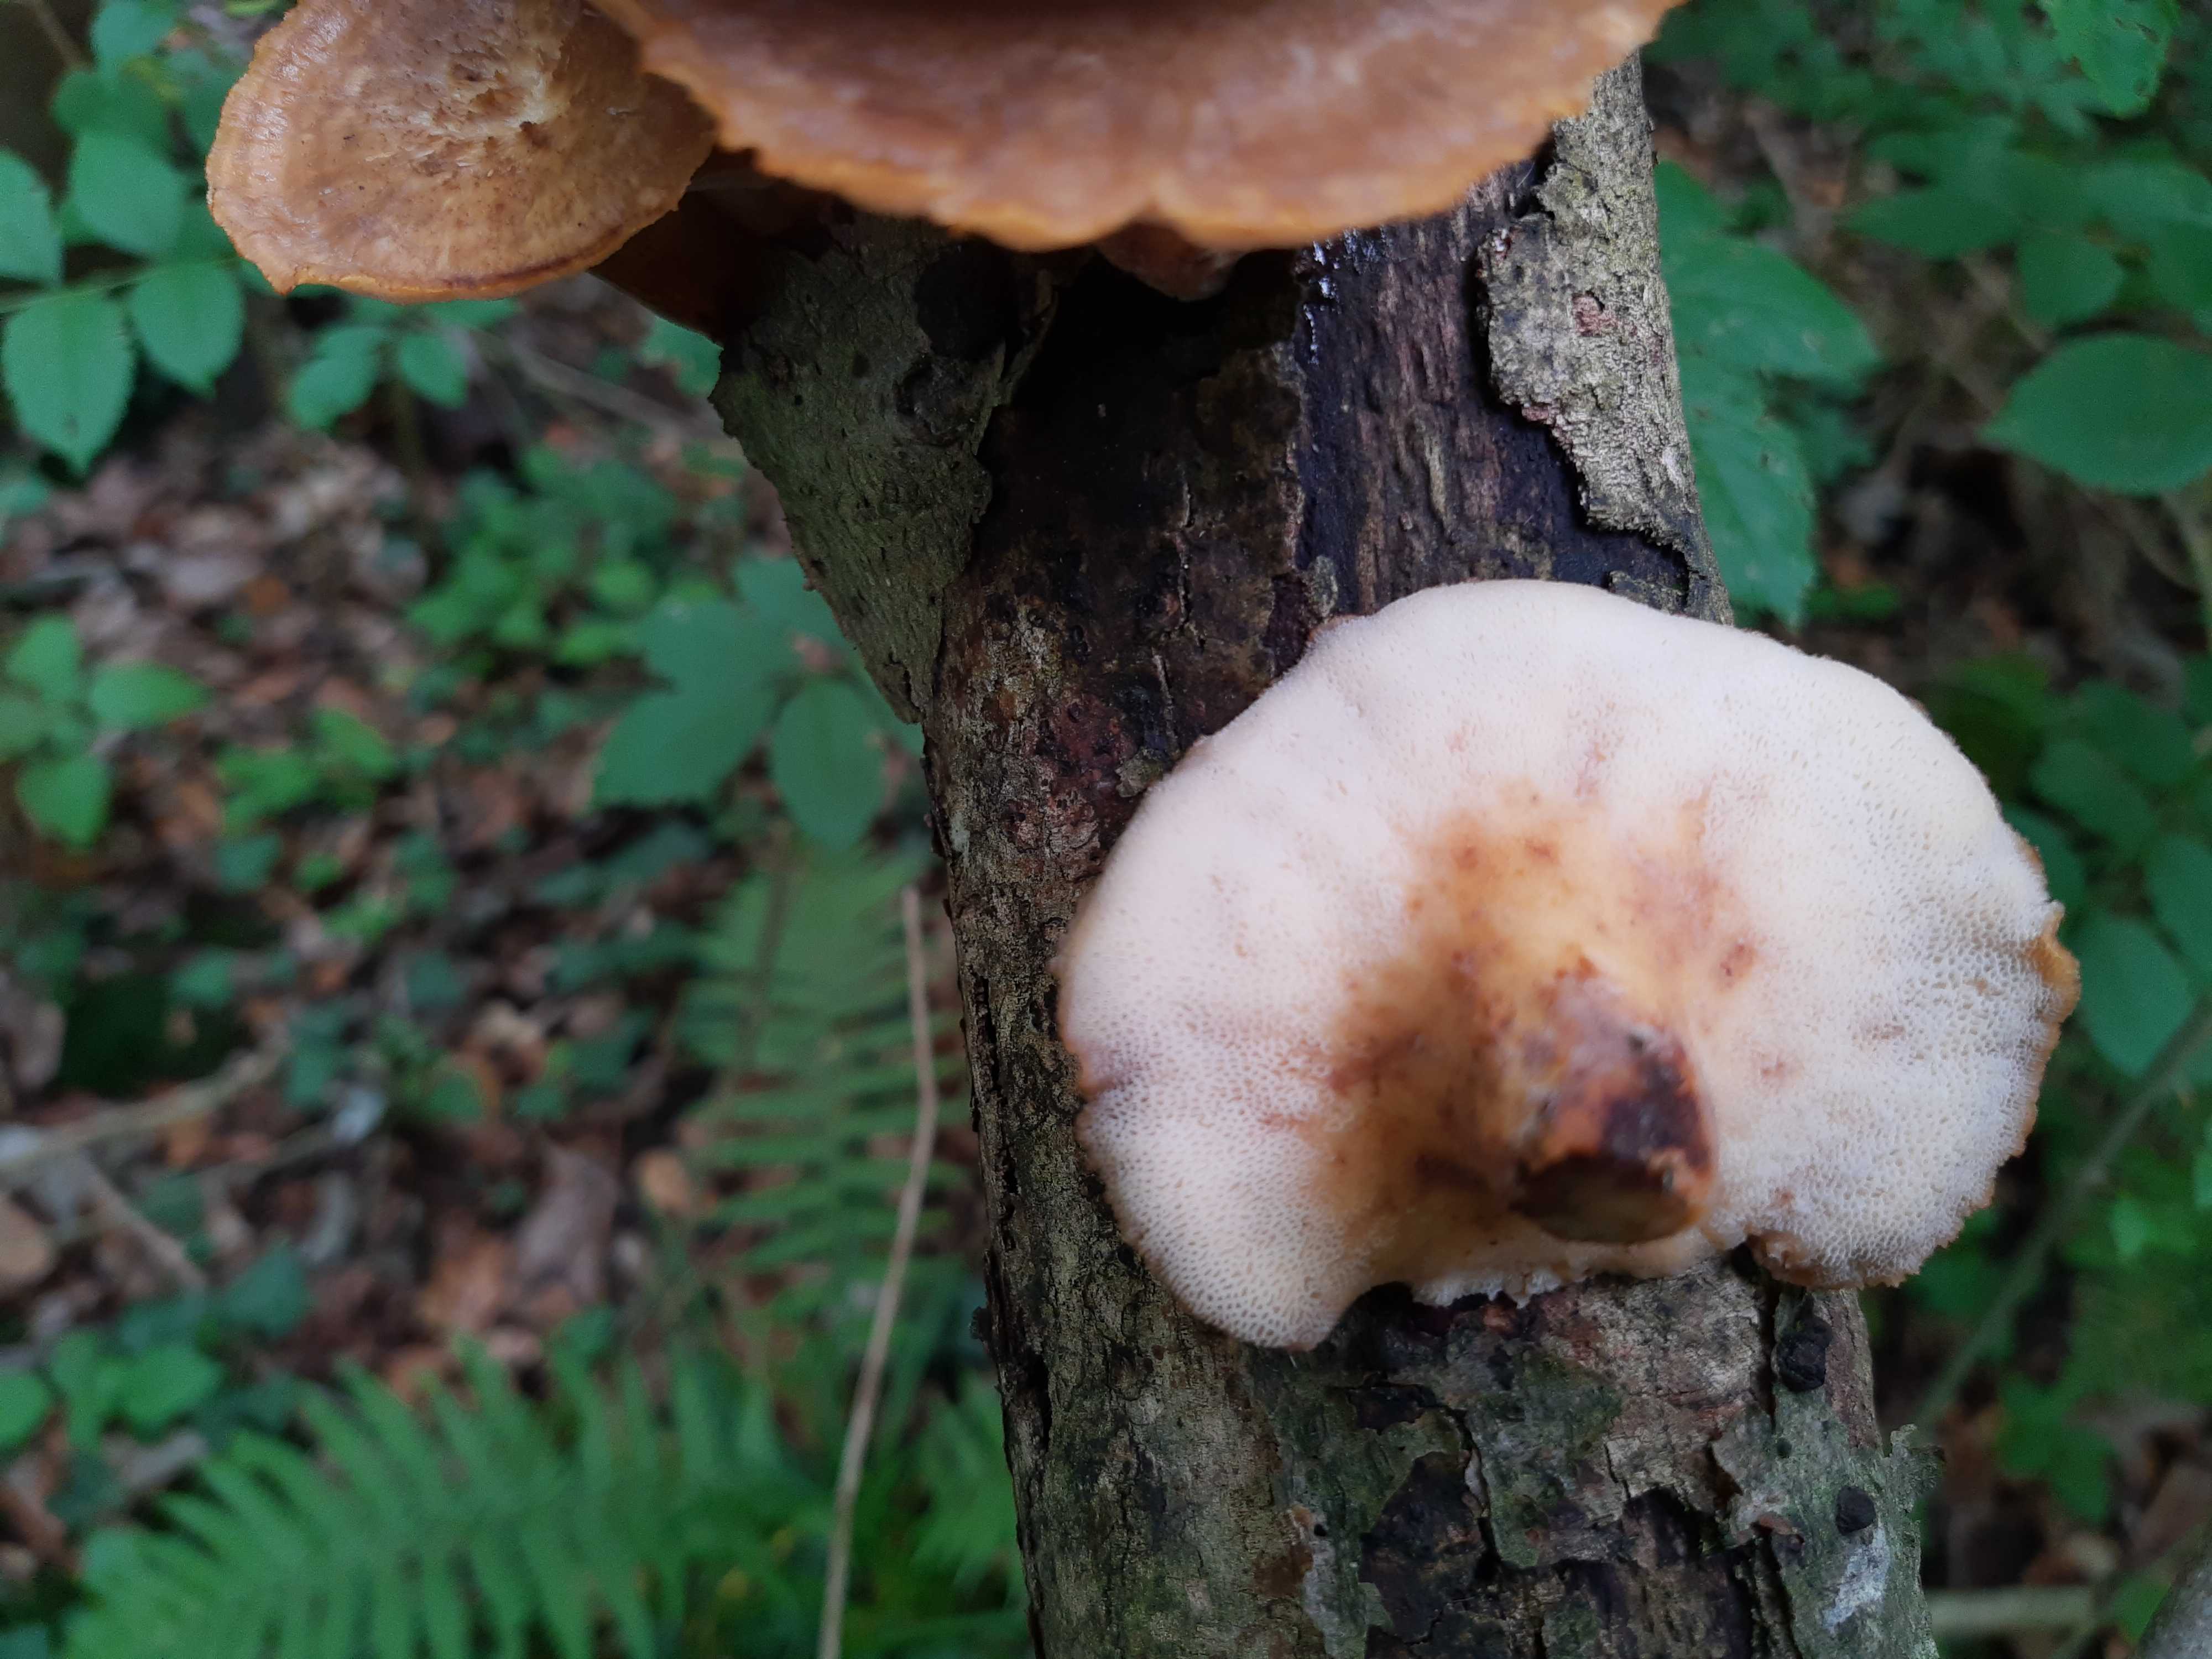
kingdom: Fungi
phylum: Basidiomycota
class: Agaricomycetes
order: Polyporales
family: Polyporaceae
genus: Polyporus
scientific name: Polyporus tuberaster
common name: knoldet stilkporesvamp
